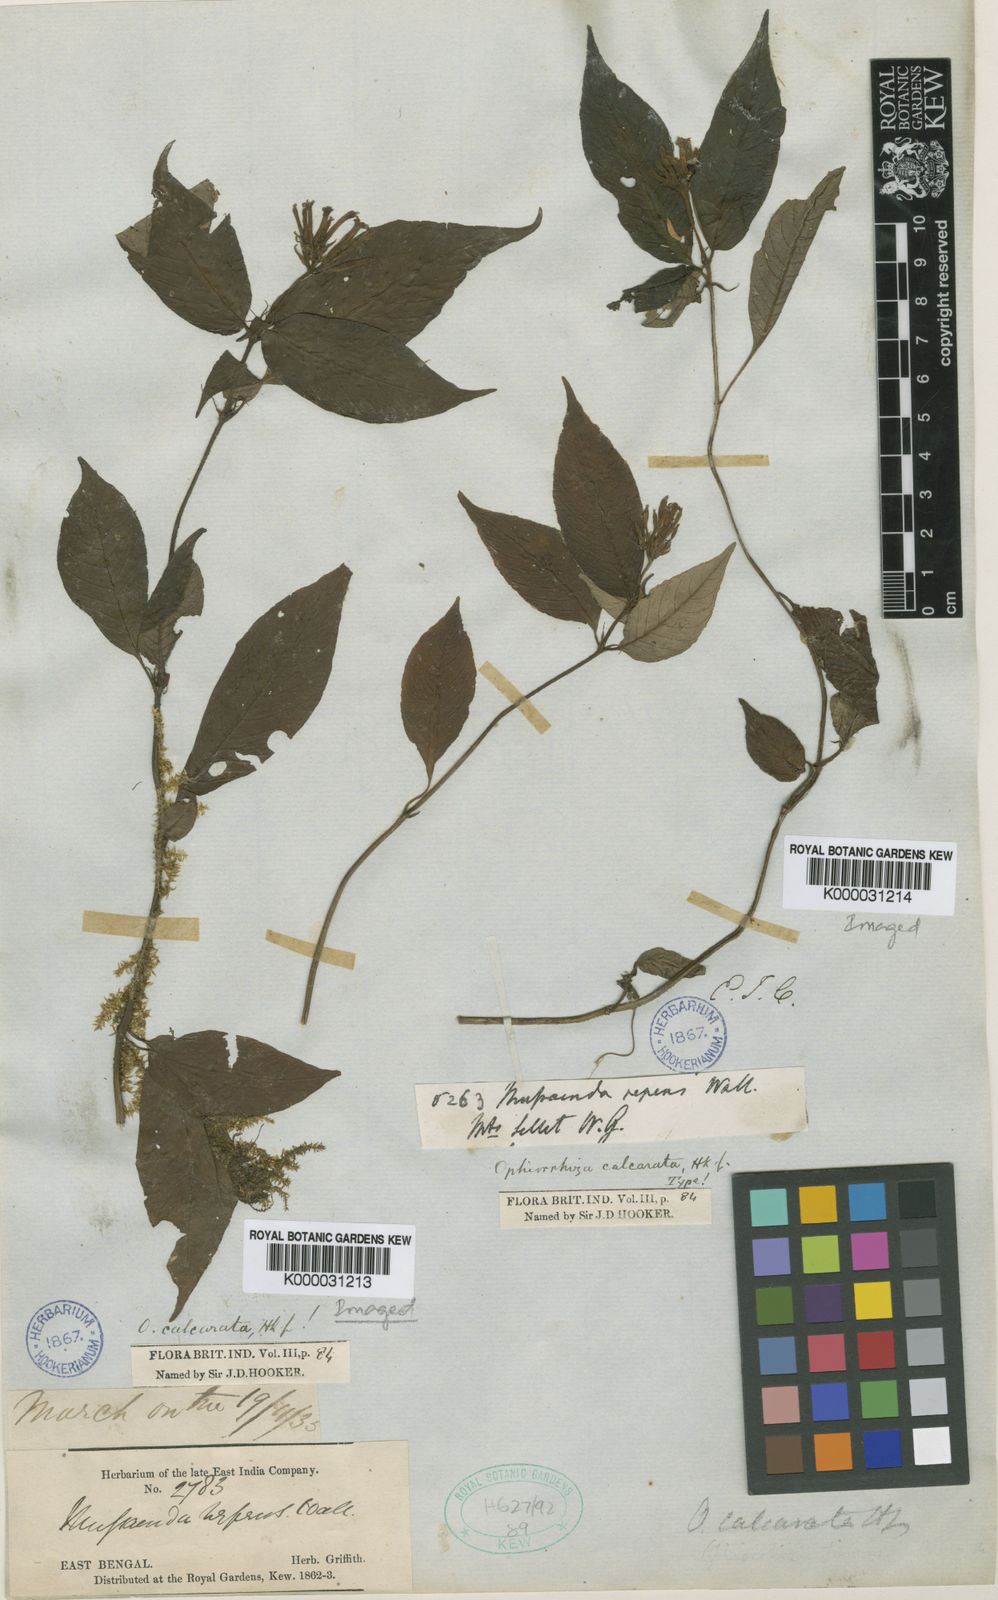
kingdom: Plantae
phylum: Tracheophyta
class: Magnoliopsida
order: Gentianales
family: Rubiaceae
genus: Ophiorrhiza
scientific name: Ophiorrhiza repens
